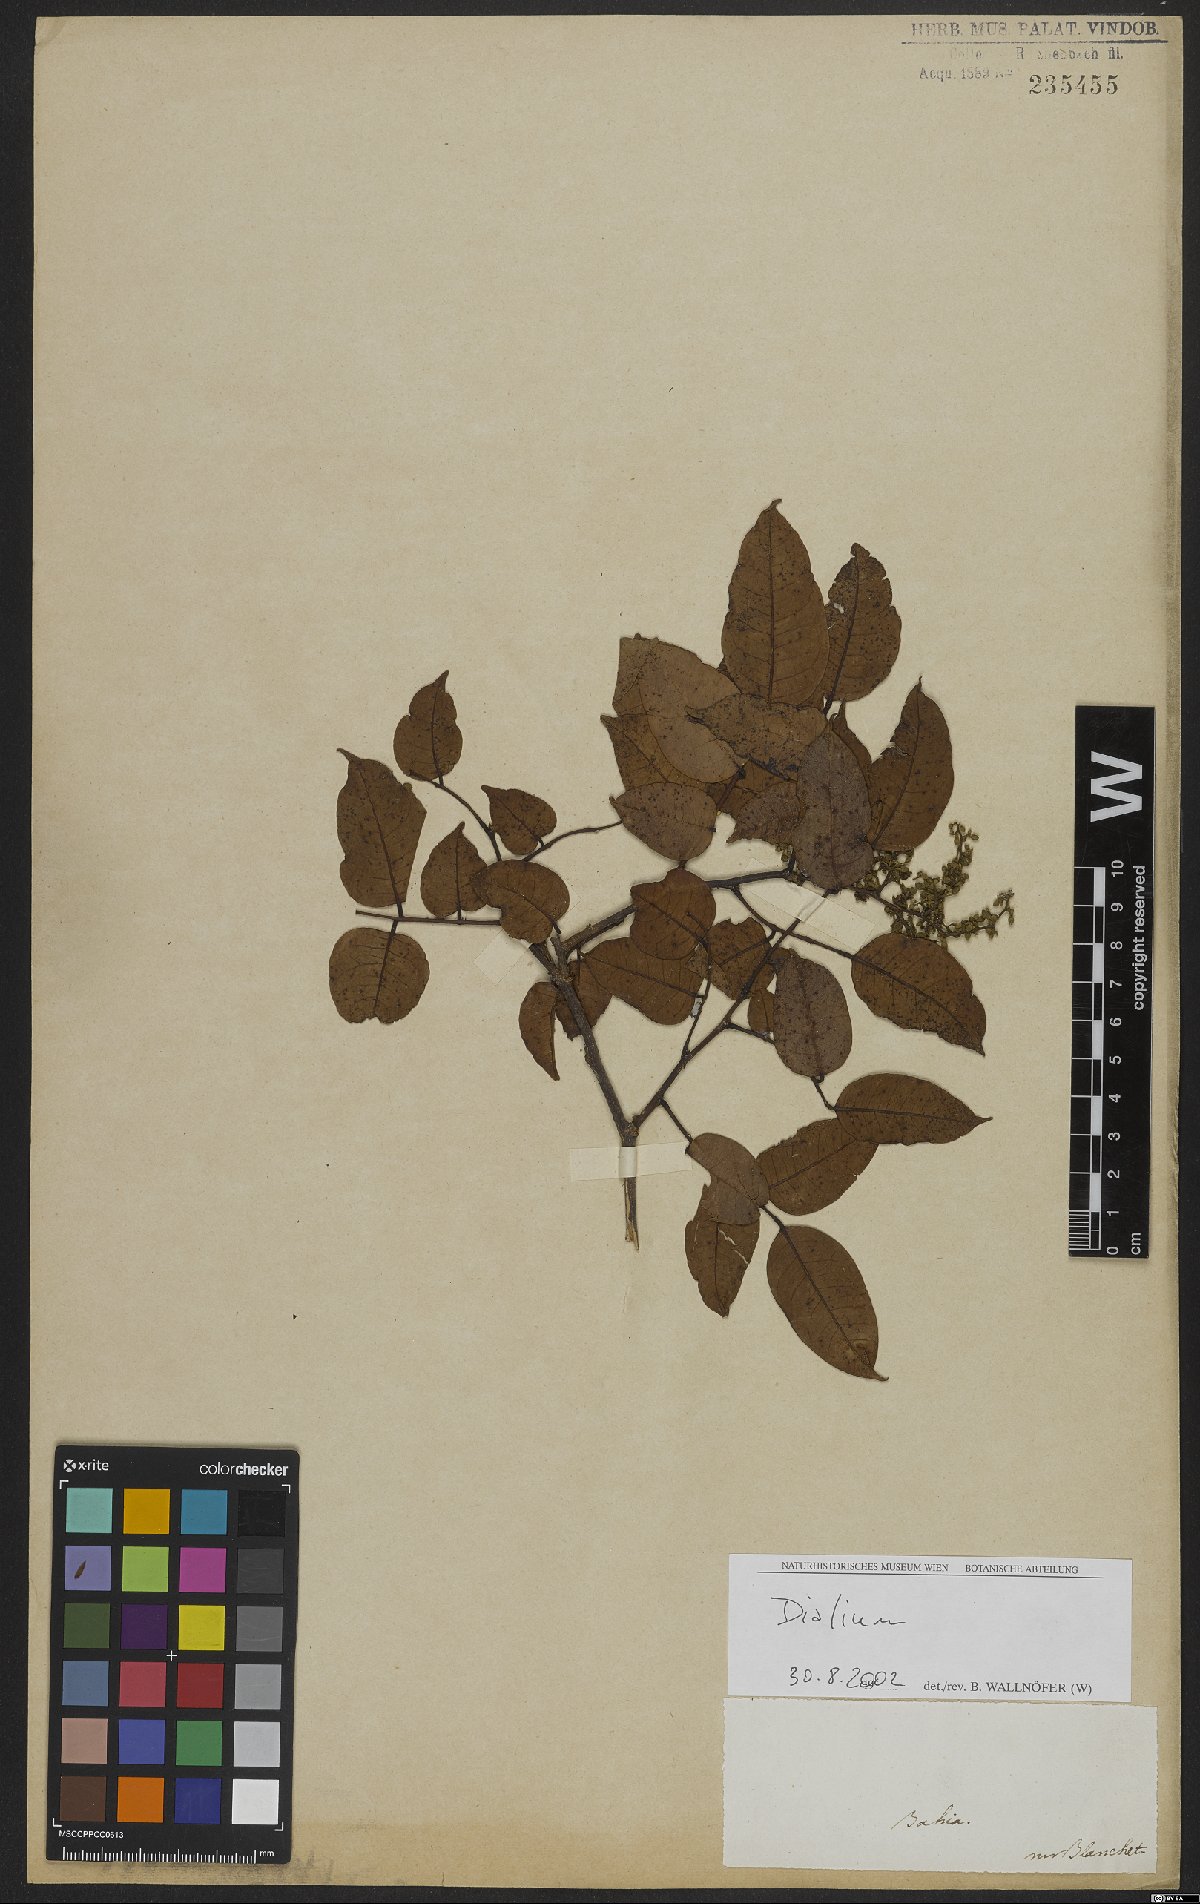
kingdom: Plantae
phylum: Tracheophyta
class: Magnoliopsida
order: Fabales
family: Fabaceae
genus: Dialium
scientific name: Dialium
